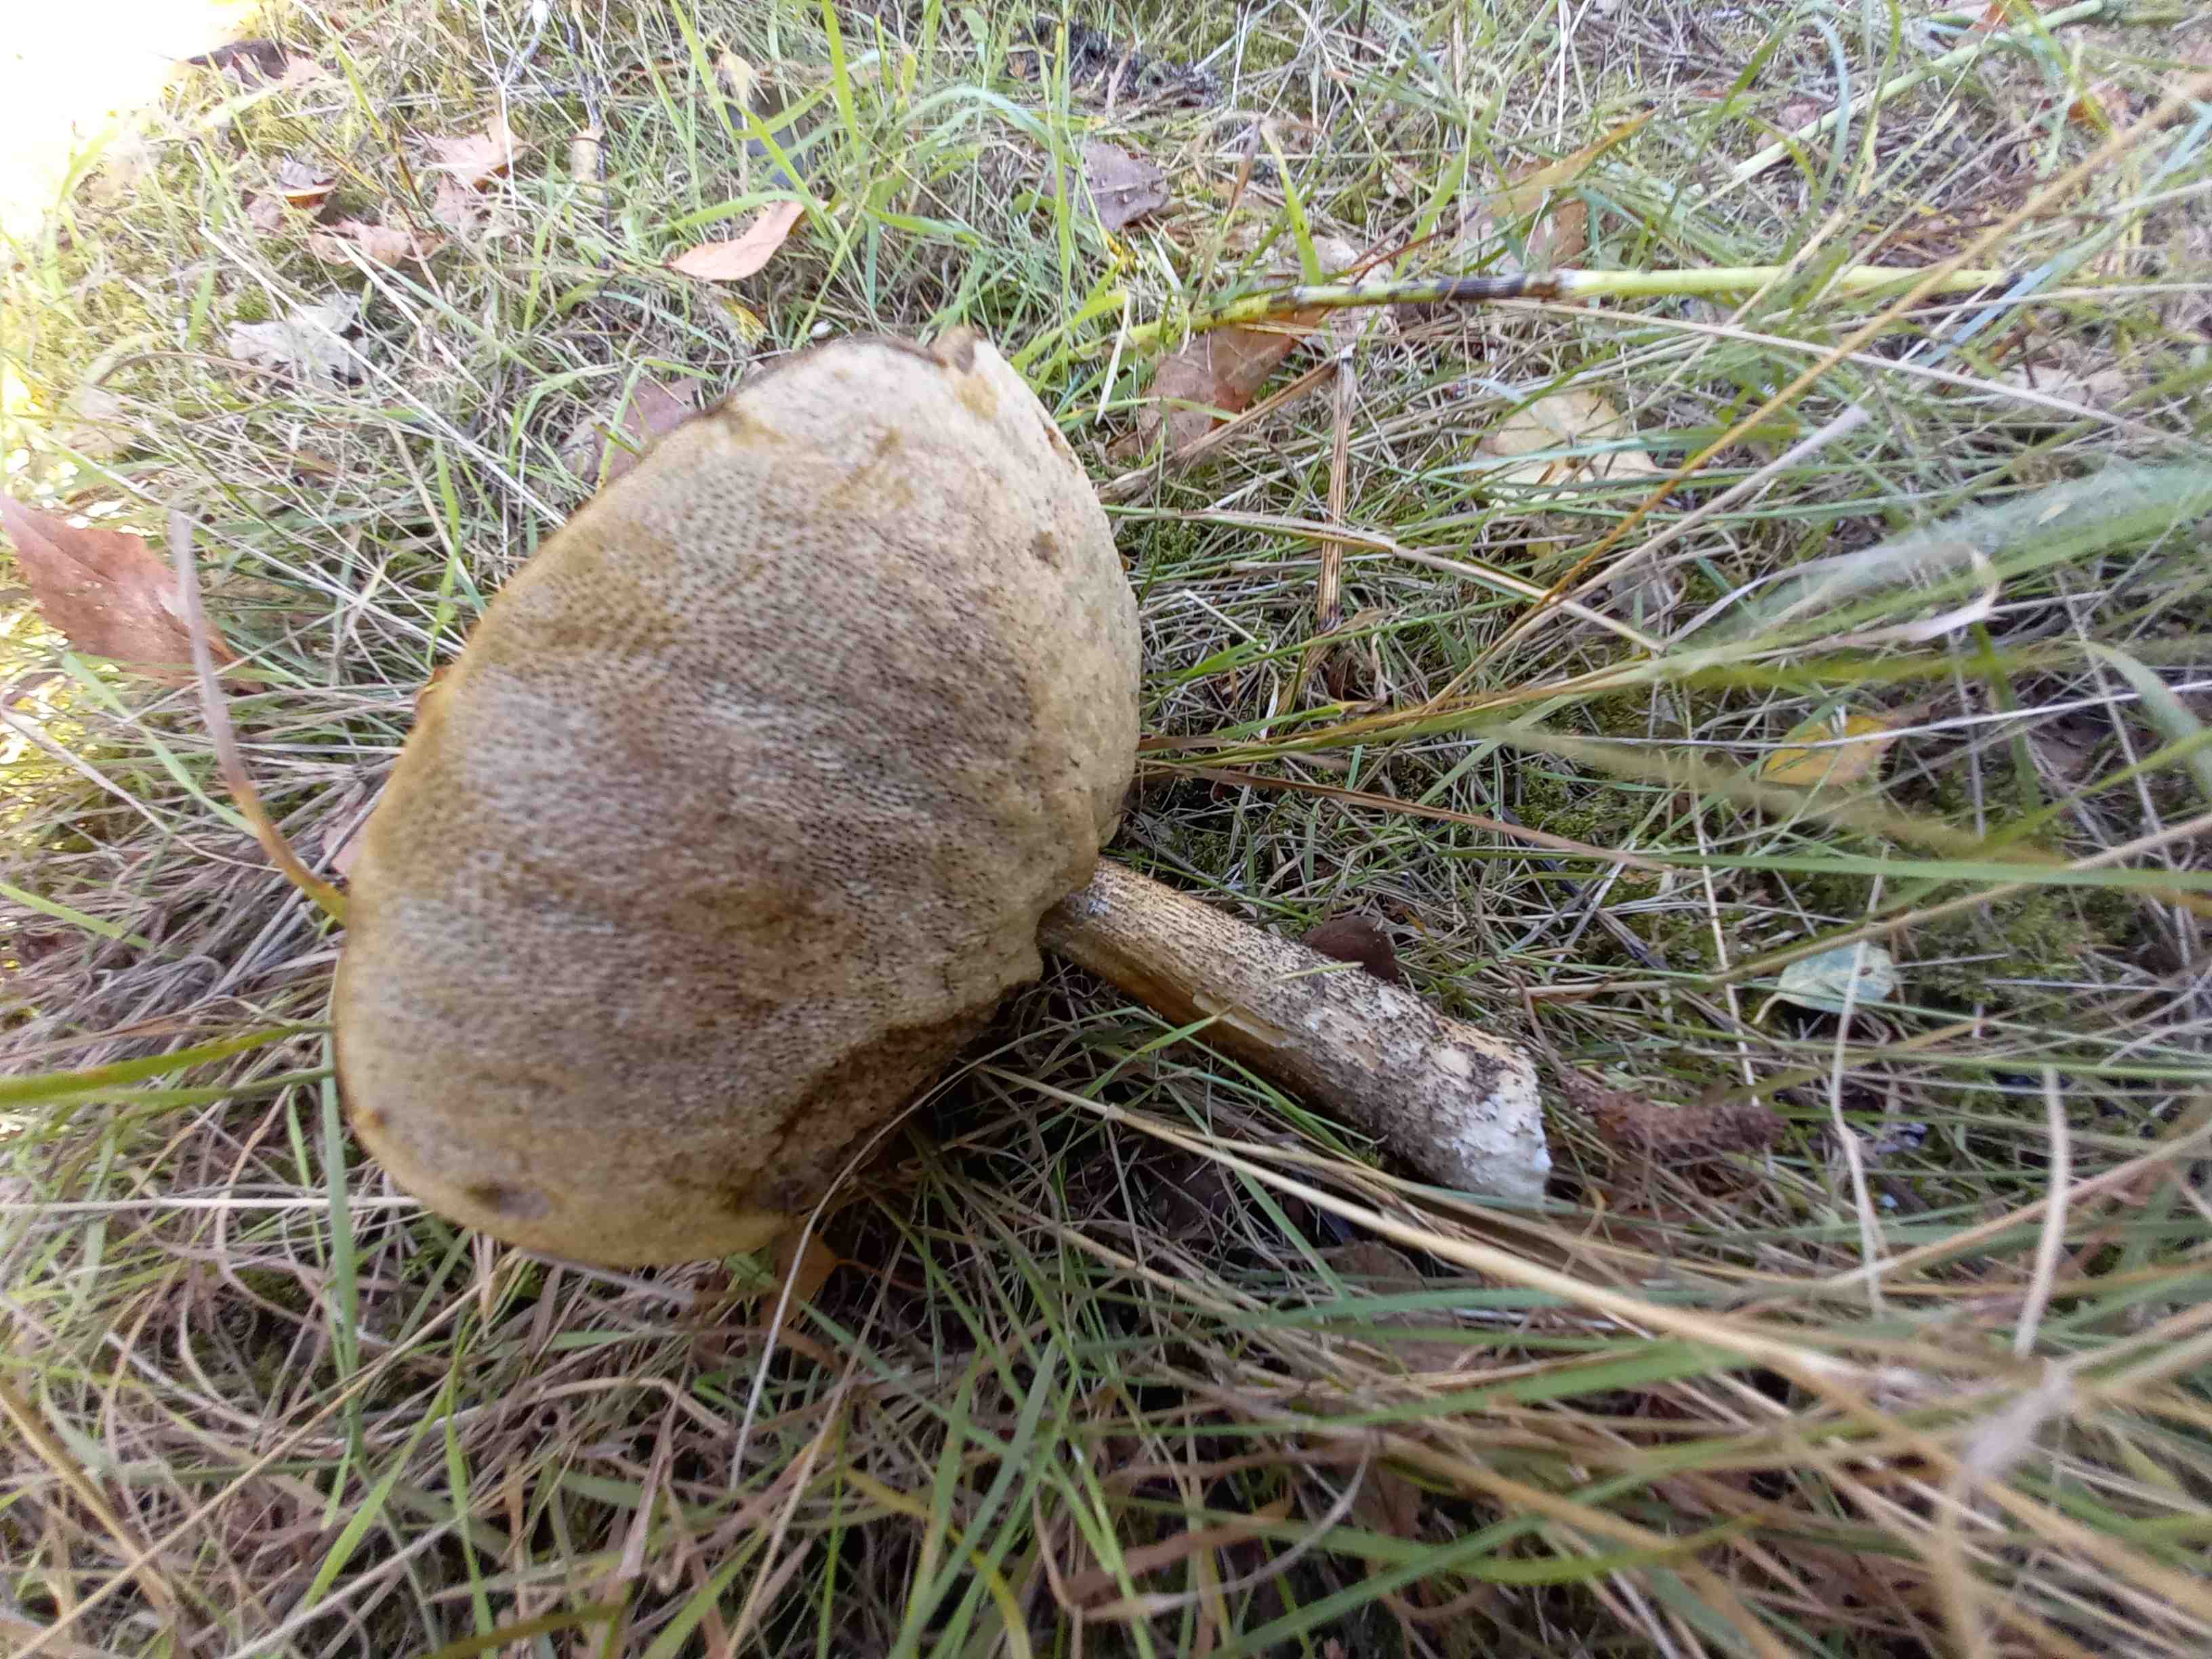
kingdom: Fungi
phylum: Basidiomycota
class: Agaricomycetes
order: Boletales
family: Boletaceae
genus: Leccinum
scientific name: Leccinum scabrum
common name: brun skælrørhat
